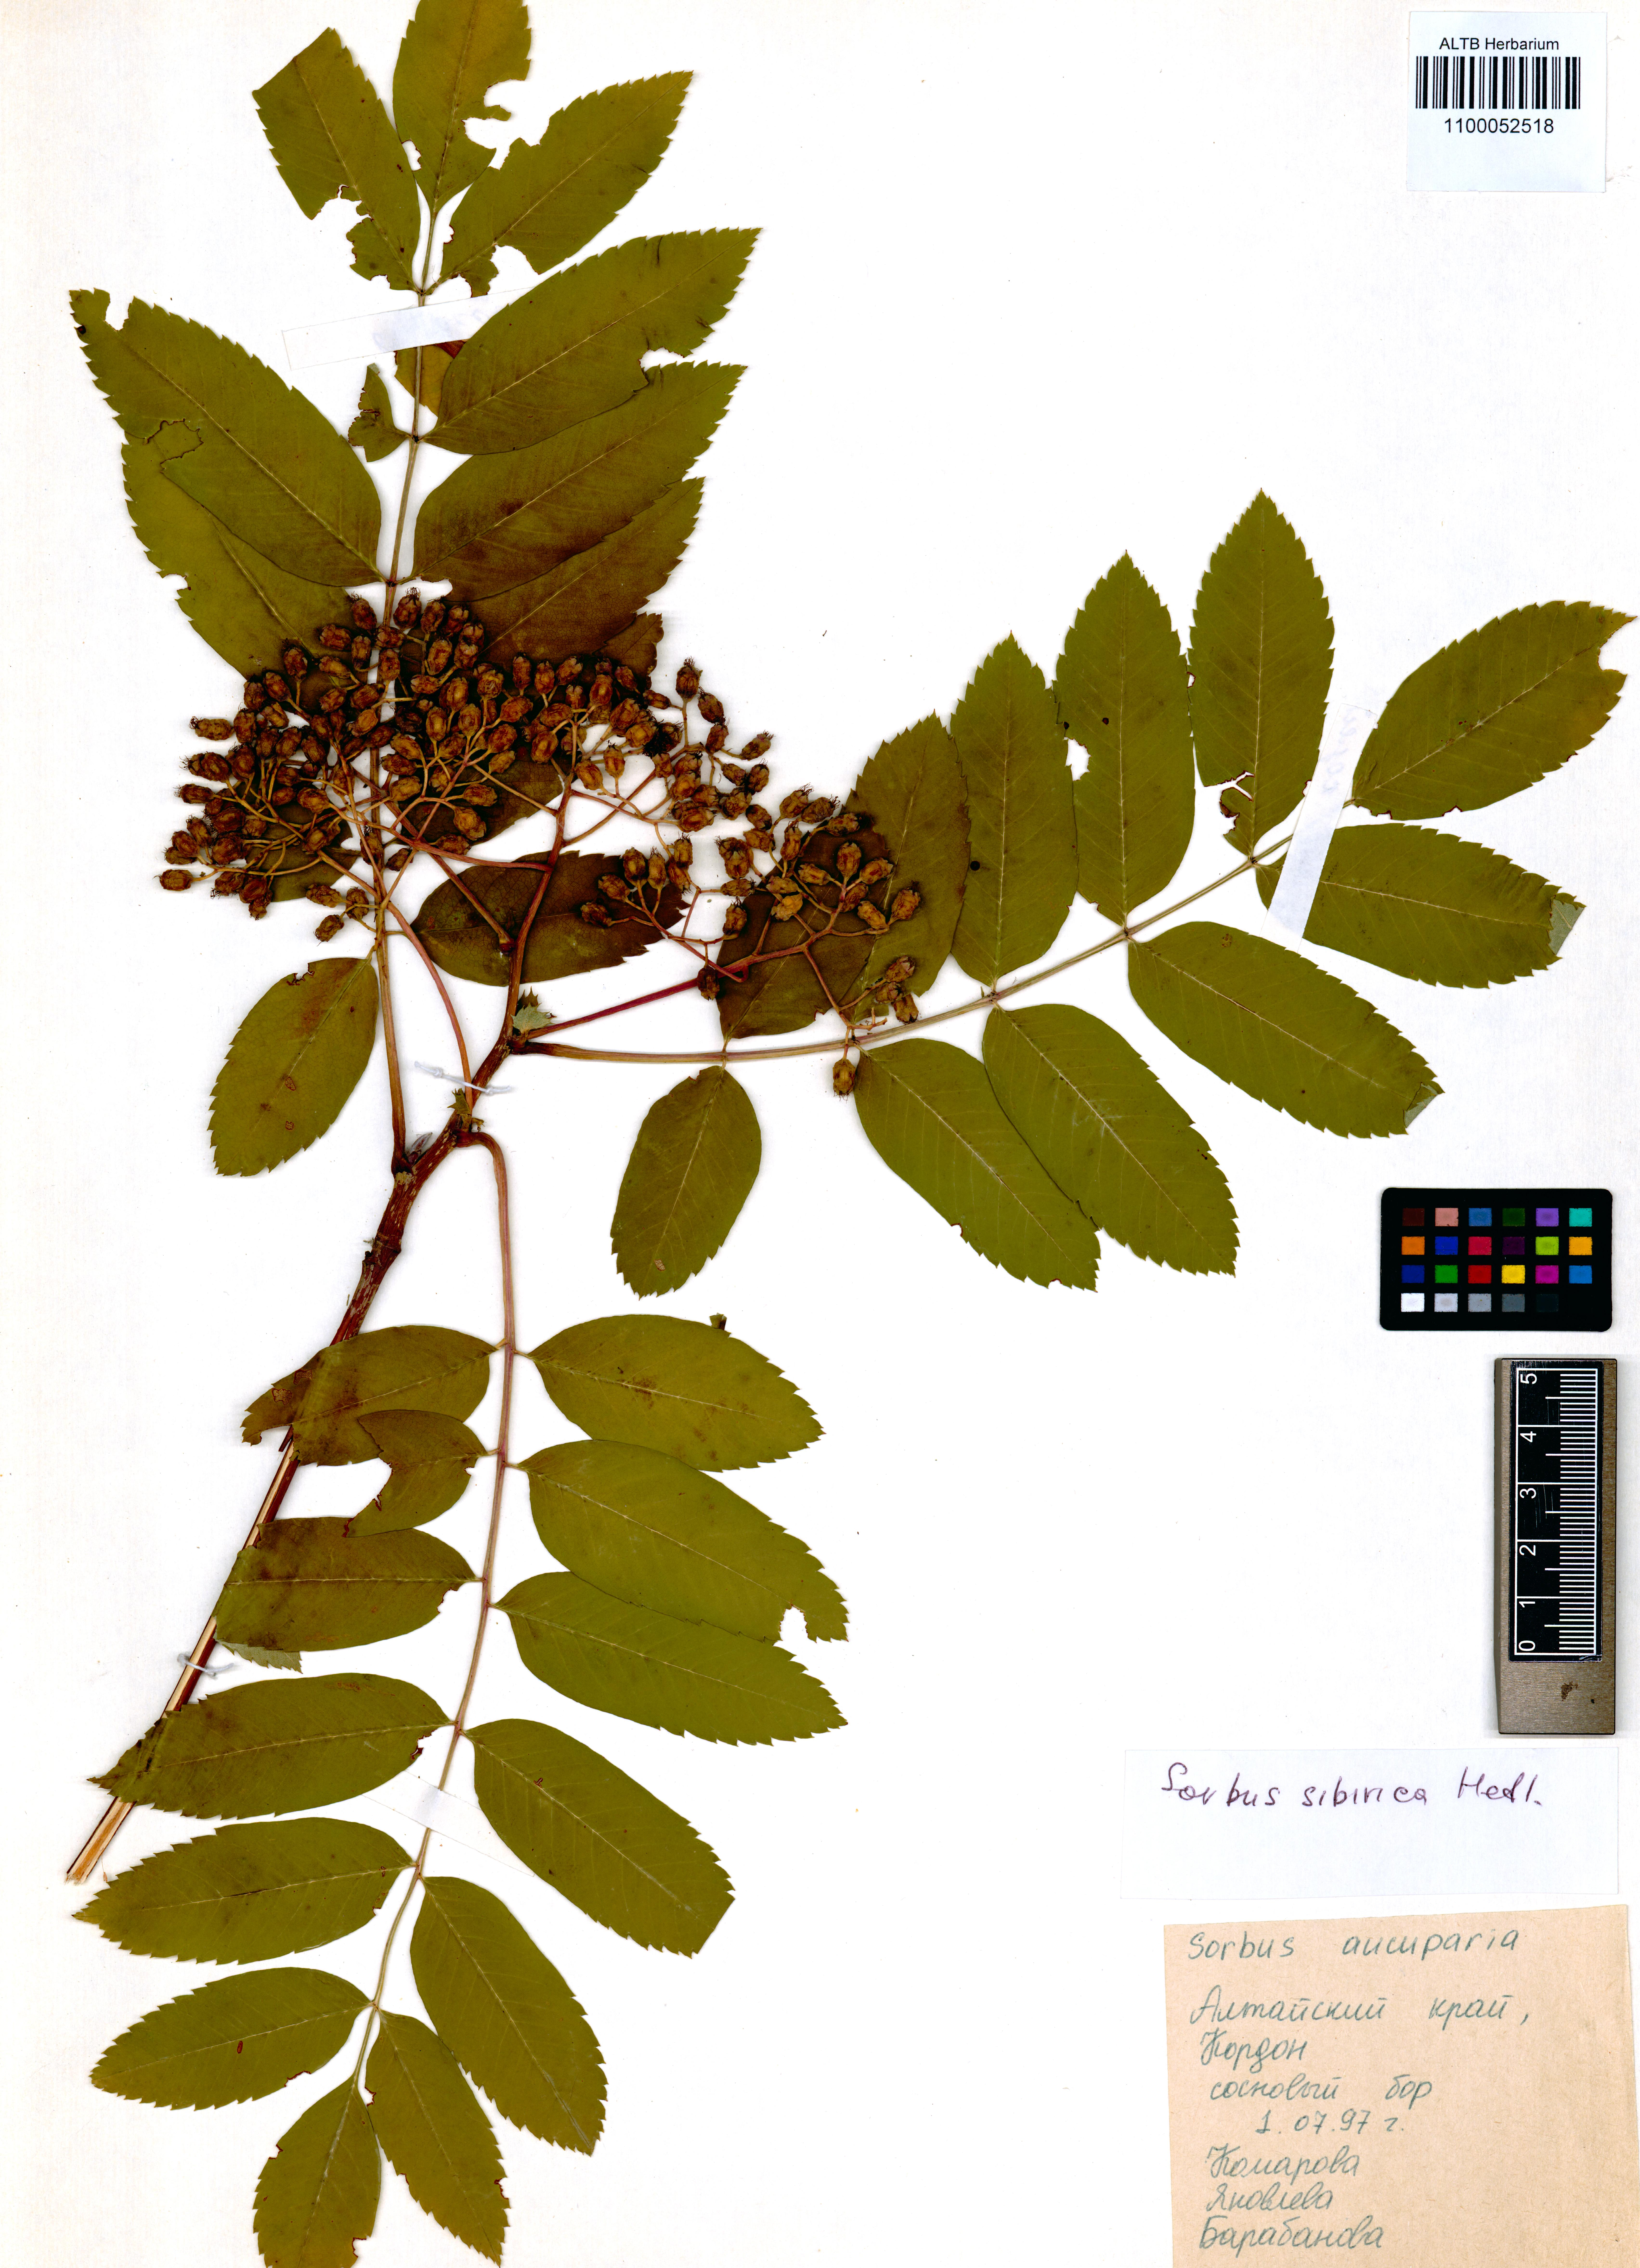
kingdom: Plantae
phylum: Tracheophyta
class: Magnoliopsida
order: Rosales
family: Rosaceae
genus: Sorbus
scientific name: Sorbus aucuparia
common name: Rowan
